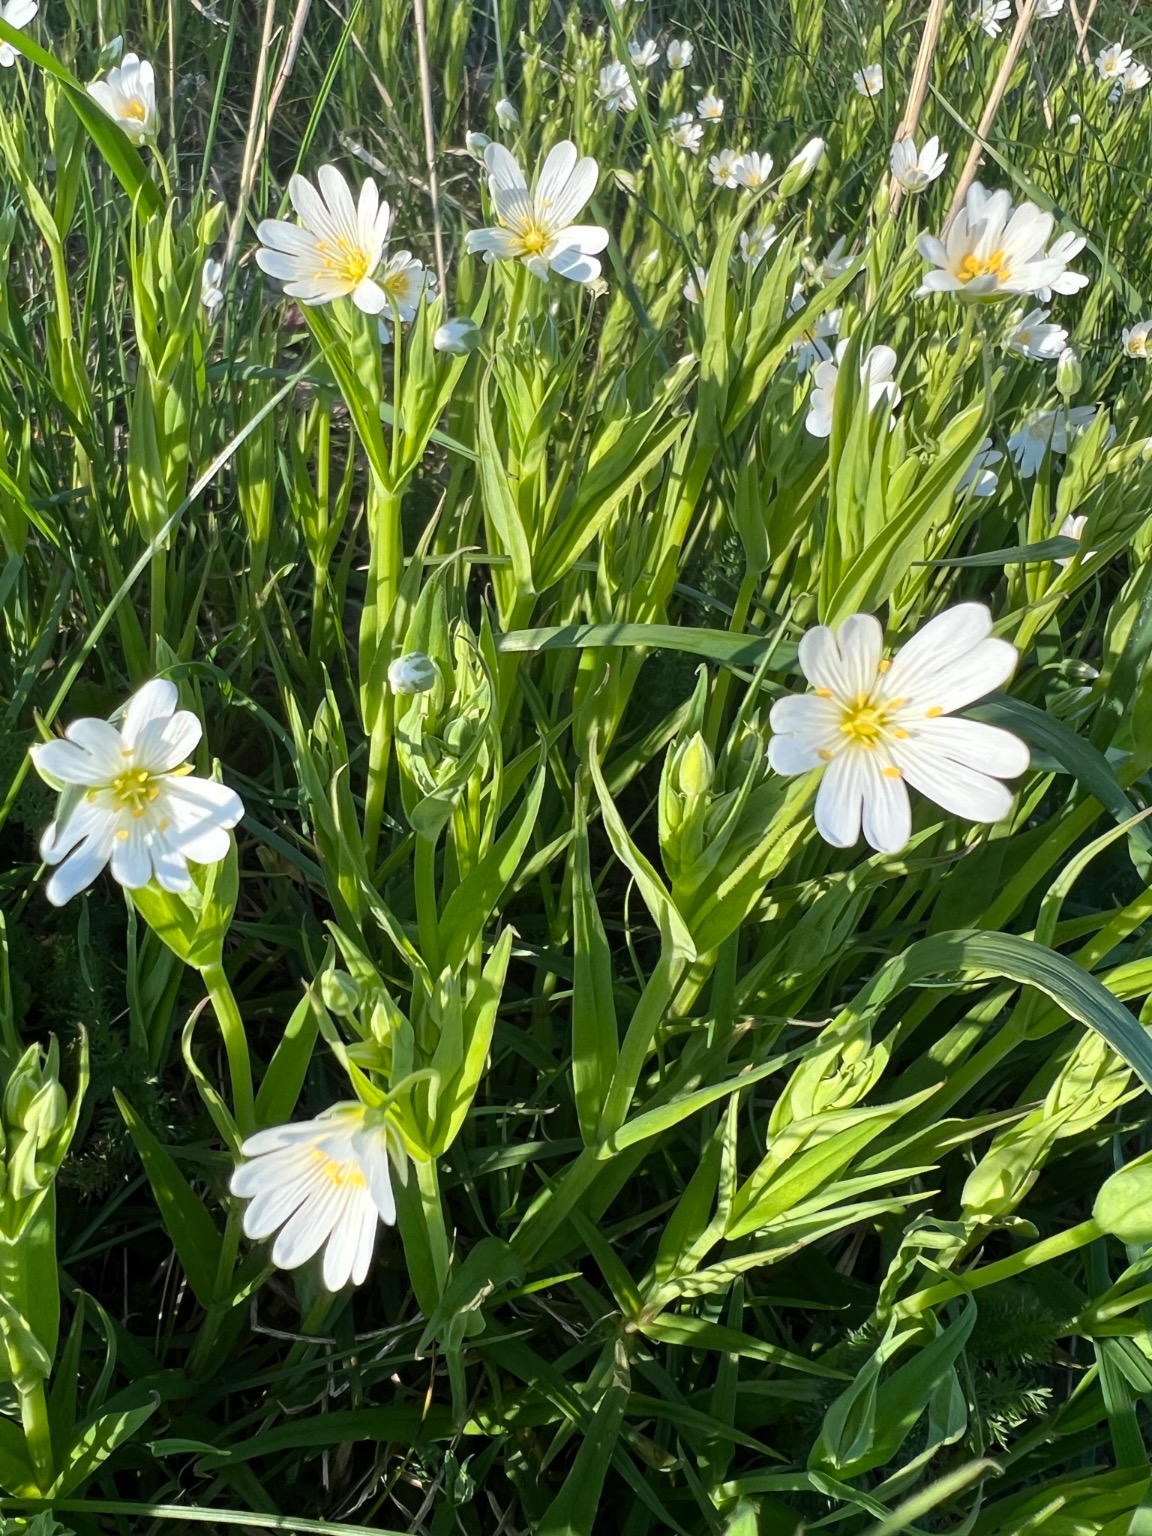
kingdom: Plantae
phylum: Tracheophyta
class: Magnoliopsida
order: Caryophyllales
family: Caryophyllaceae
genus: Rabelera
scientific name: Rabelera holostea
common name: Stor fladstjerne
